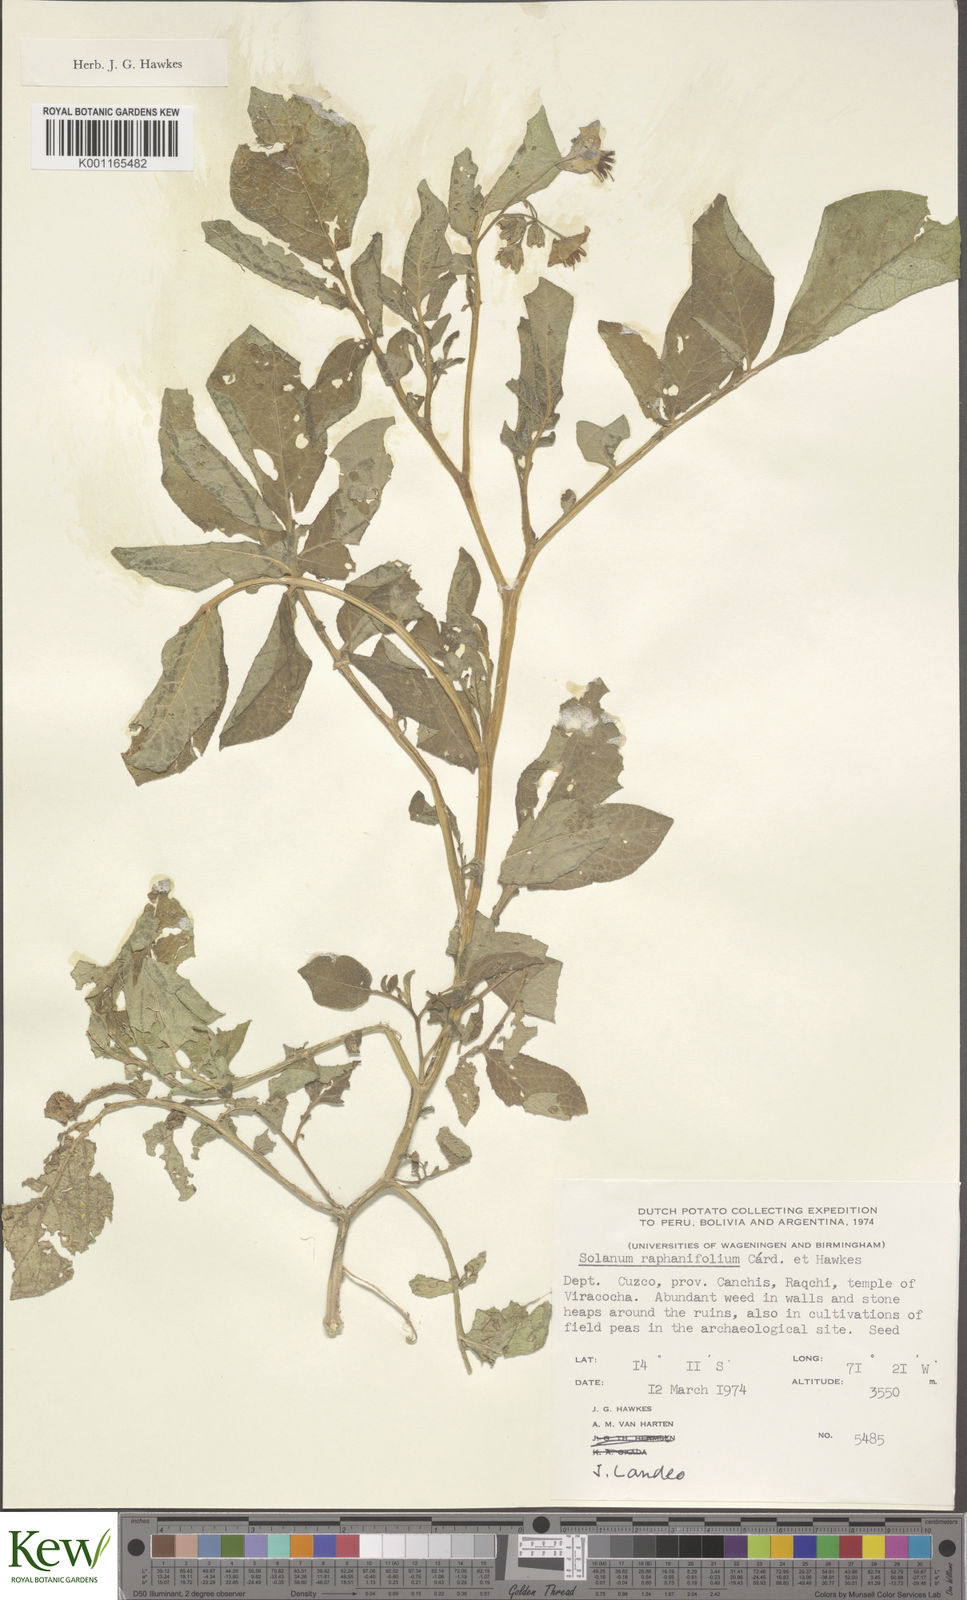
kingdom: Plantae
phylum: Tracheophyta
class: Magnoliopsida
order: Solanales
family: Solanaceae
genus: Solanum
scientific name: Solanum raphanifolium
